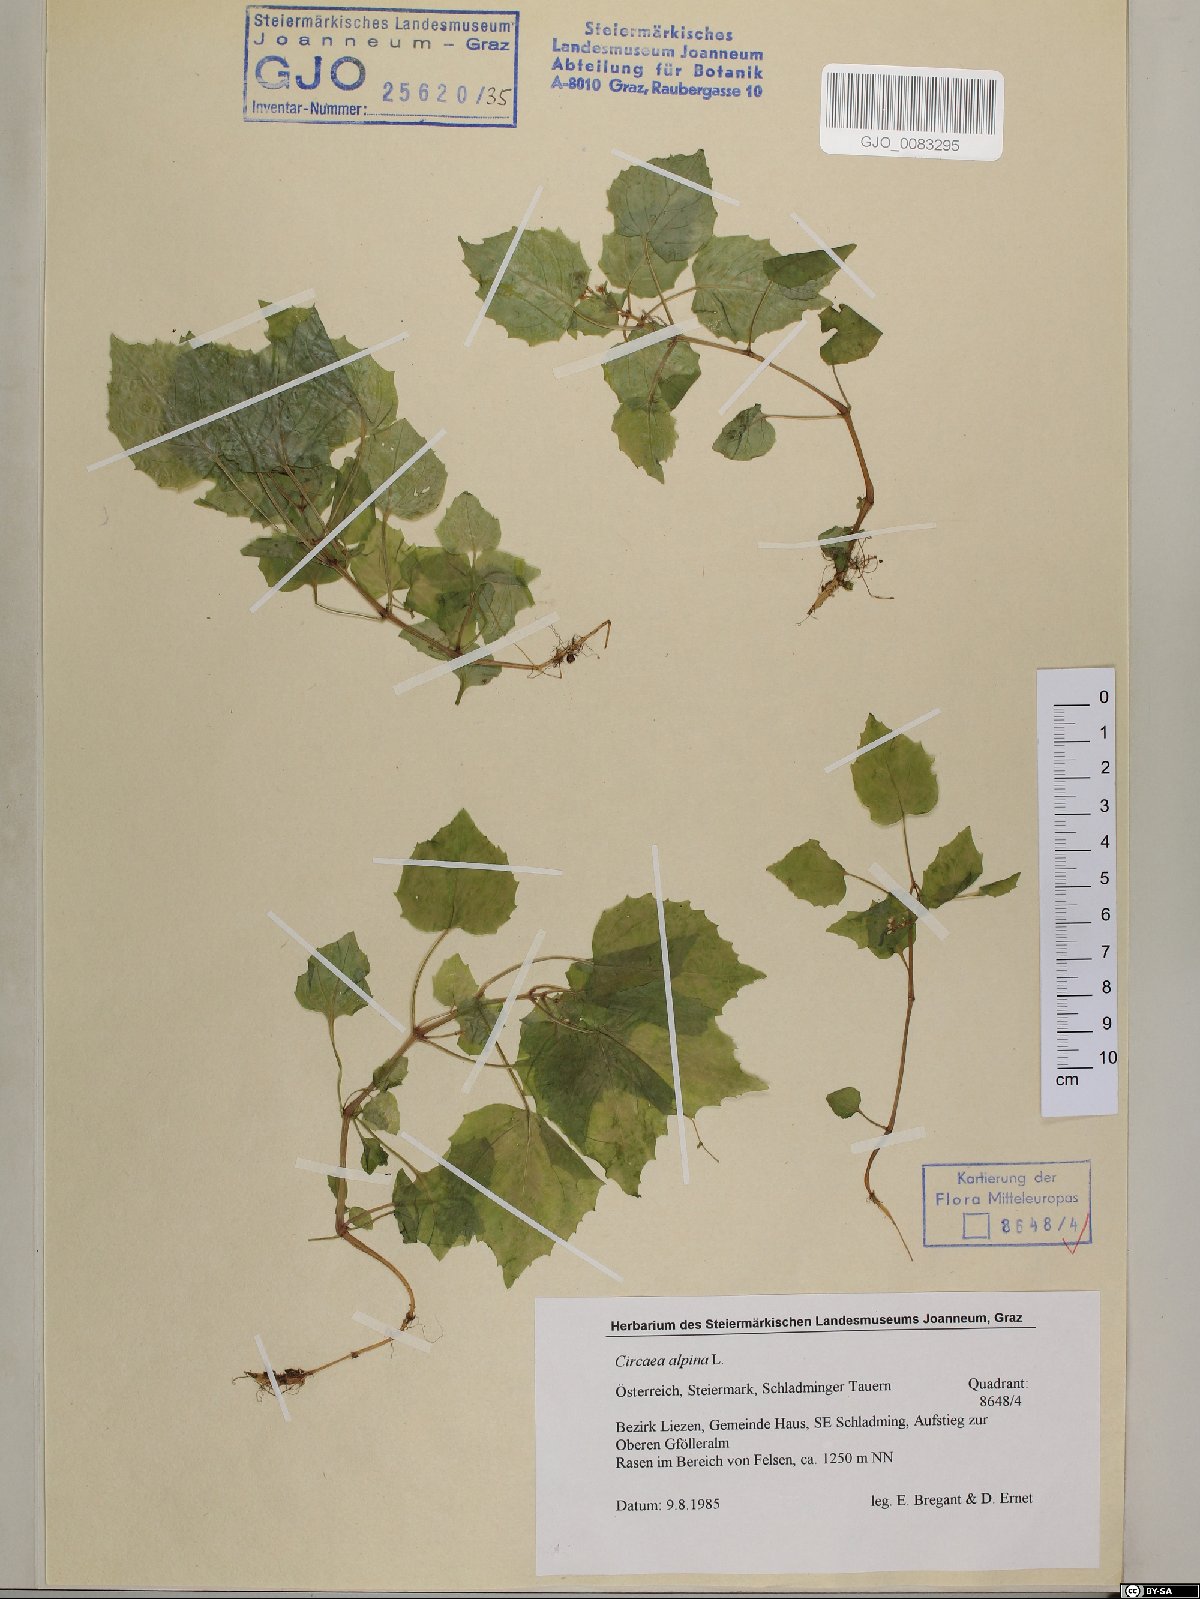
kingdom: Plantae
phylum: Tracheophyta
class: Magnoliopsida
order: Myrtales
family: Onagraceae
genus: Circaea
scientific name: Circaea alpina
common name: Alpine enchanter's-nightshade
